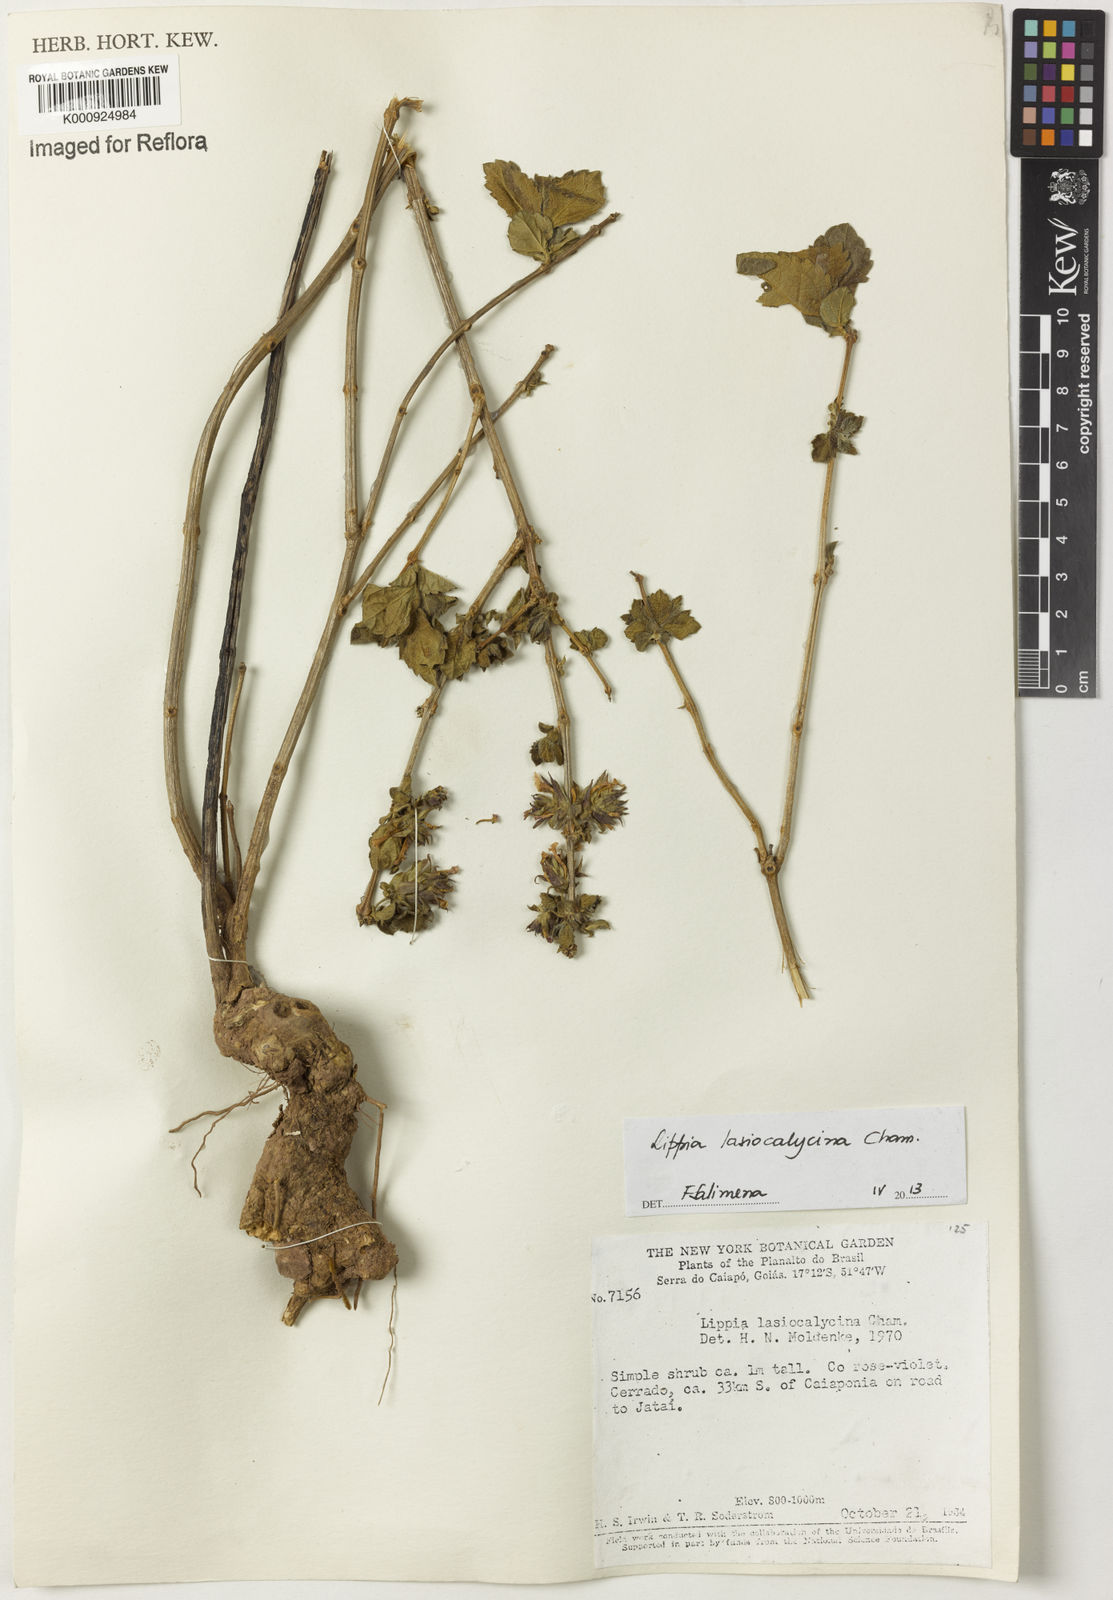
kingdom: Plantae
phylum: Tracheophyta
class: Magnoliopsida
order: Lamiales
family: Verbenaceae
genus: Lippia
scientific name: Lippia lasiocalycina
